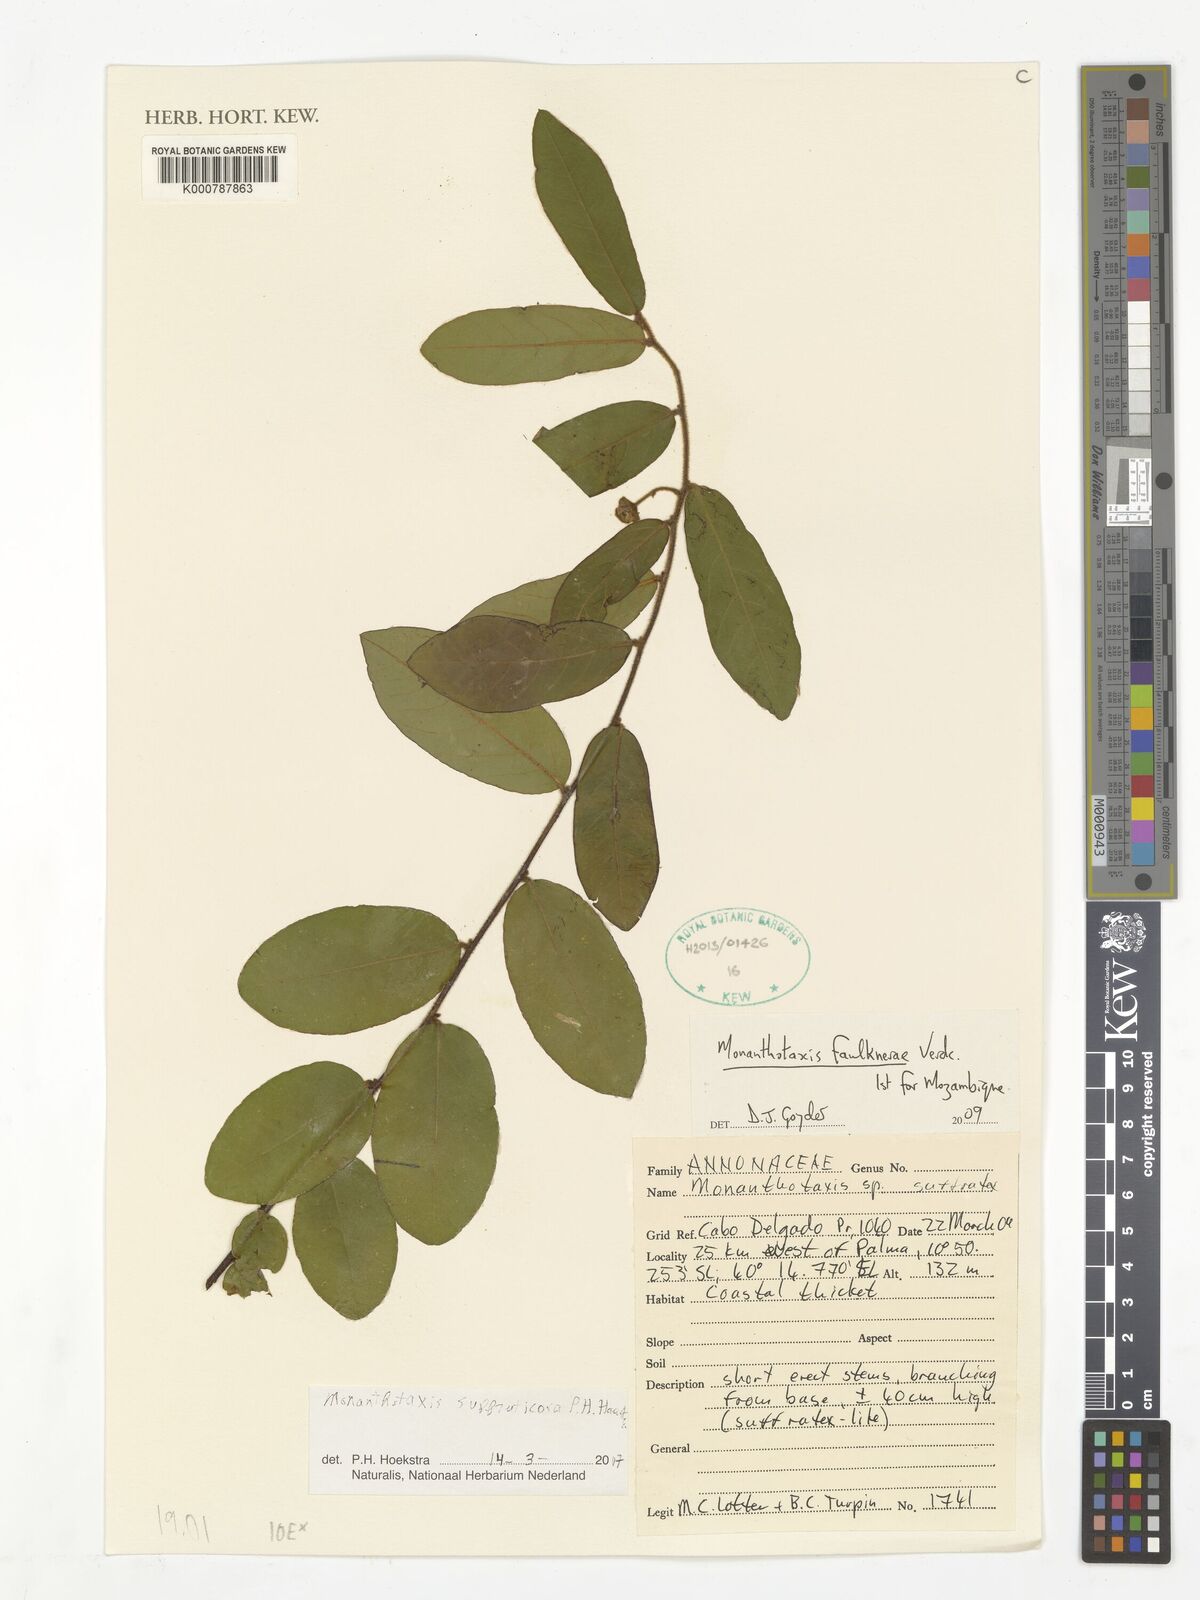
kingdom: Plantae
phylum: Tracheophyta
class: Magnoliopsida
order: Magnoliales
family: Annonaceae
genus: Monanthotaxis
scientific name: Monanthotaxis
